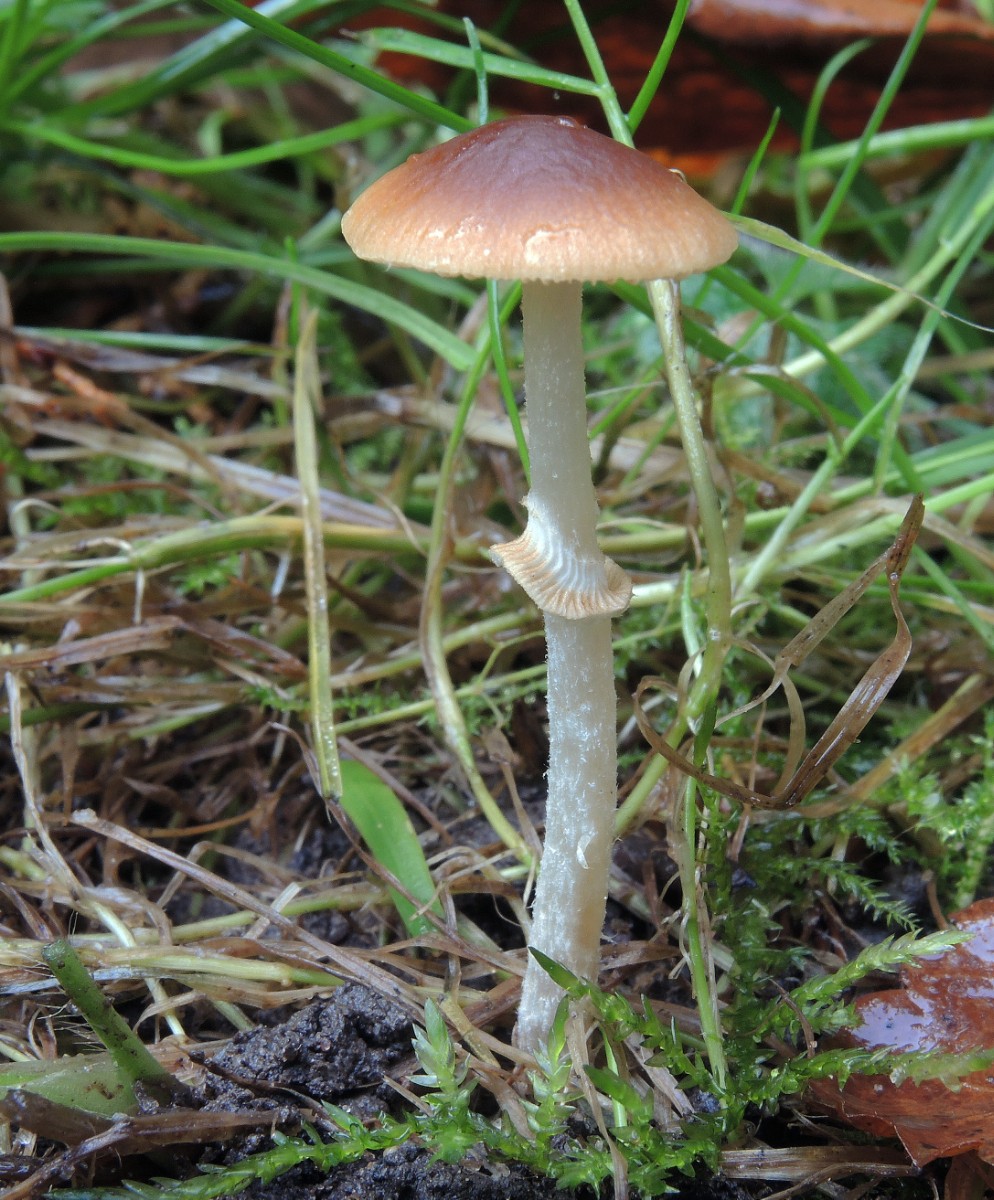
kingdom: Fungi
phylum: Basidiomycota
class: Agaricomycetes
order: Agaricales
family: Bolbitiaceae
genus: Conocybe
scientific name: Conocybe arrhenii
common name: ring-dansehat
